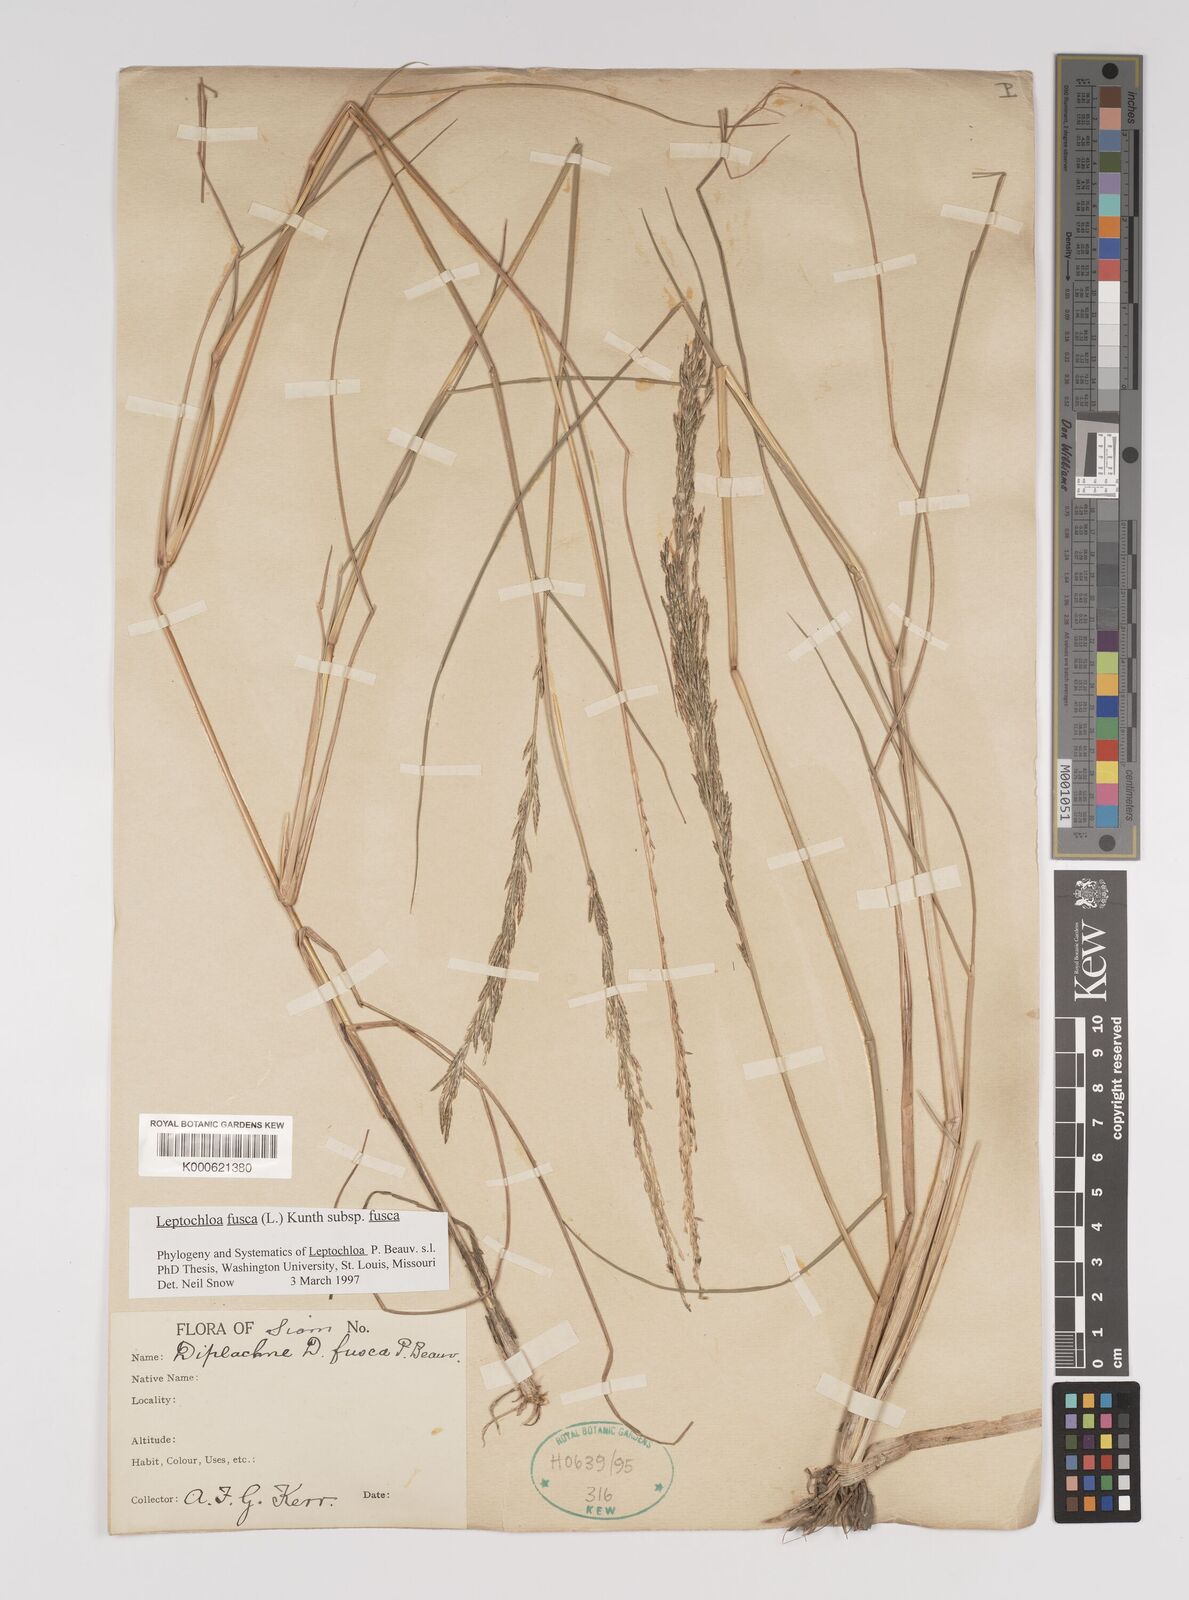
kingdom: Plantae
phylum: Tracheophyta
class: Liliopsida
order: Poales
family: Poaceae
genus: Diplachne
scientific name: Diplachne fusca
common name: Brown beetle grass
